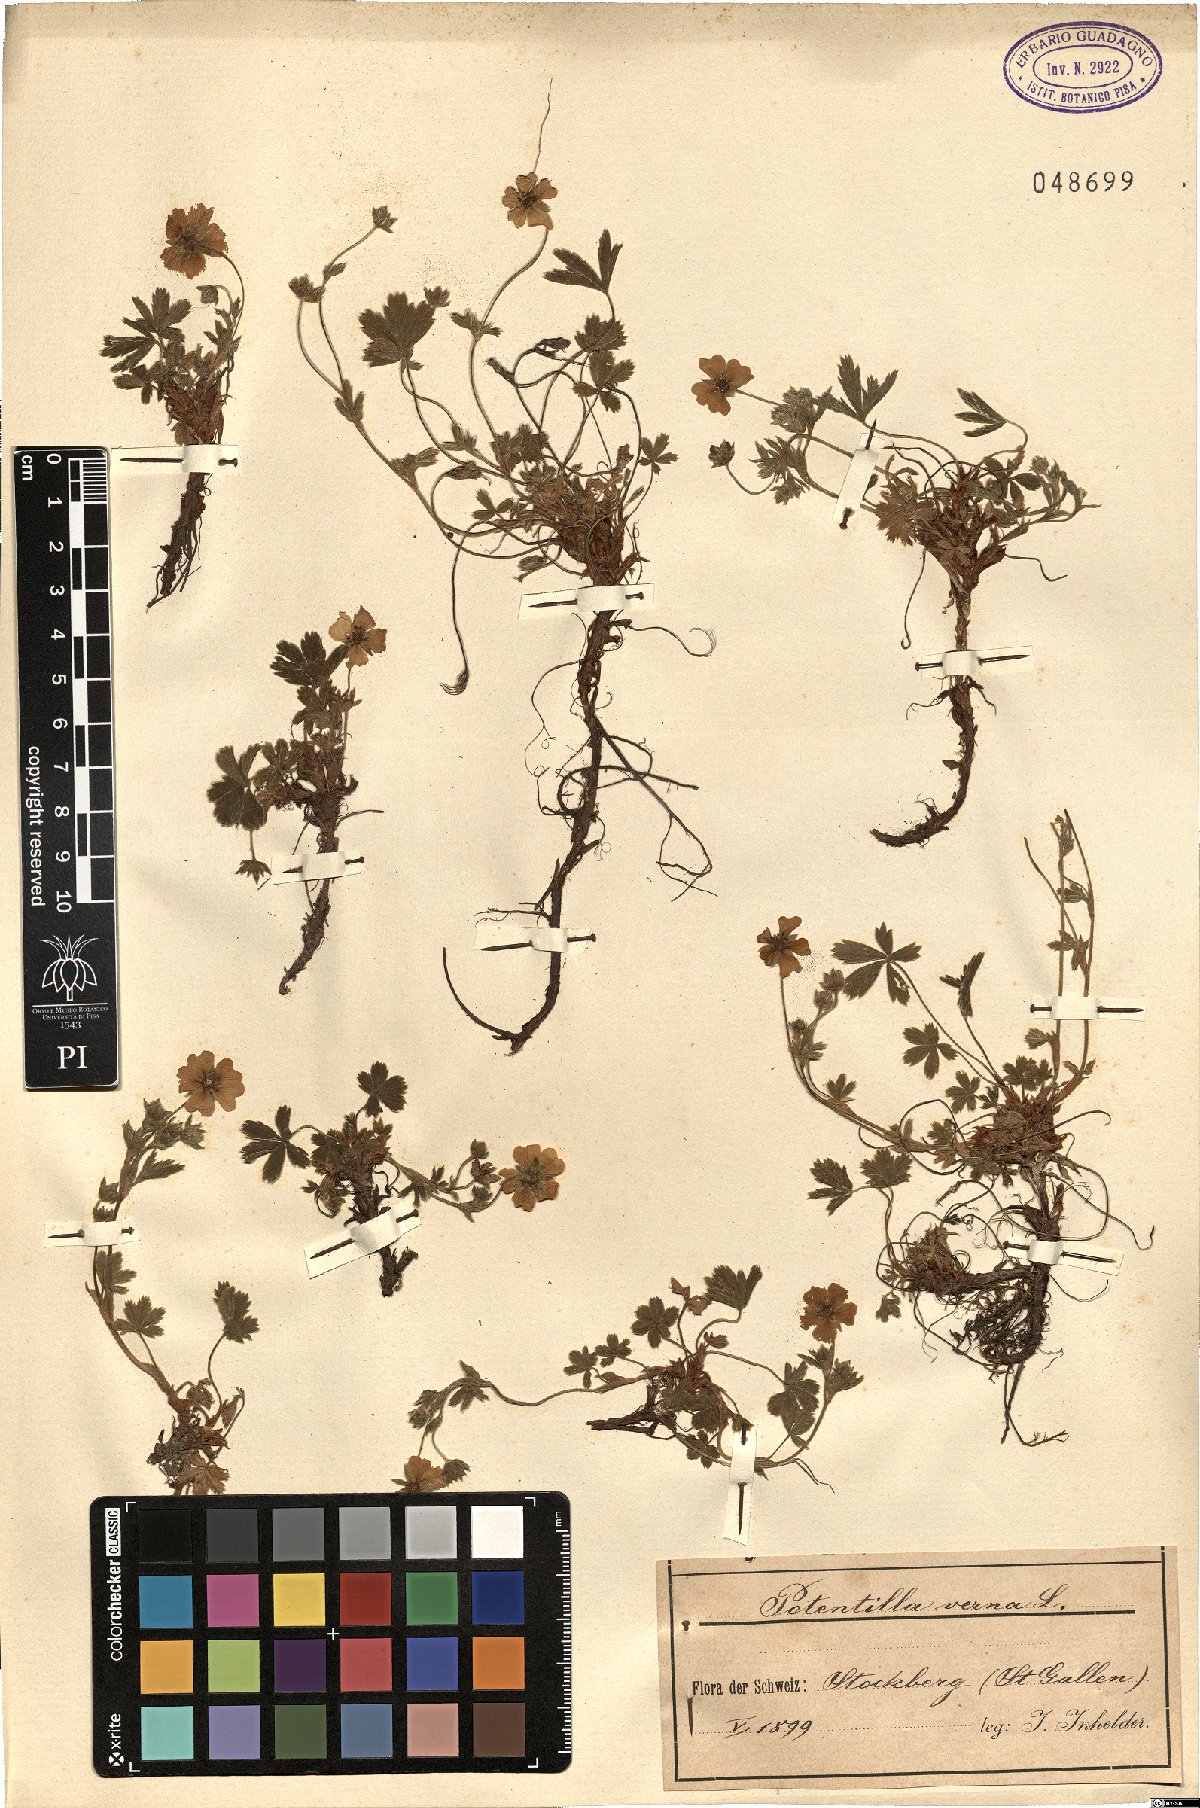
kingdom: Plantae
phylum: Tracheophyta
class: Magnoliopsida
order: Rosales
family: Rosaceae
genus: Potentilla
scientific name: Potentilla verna
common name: Spring cinquefoil
